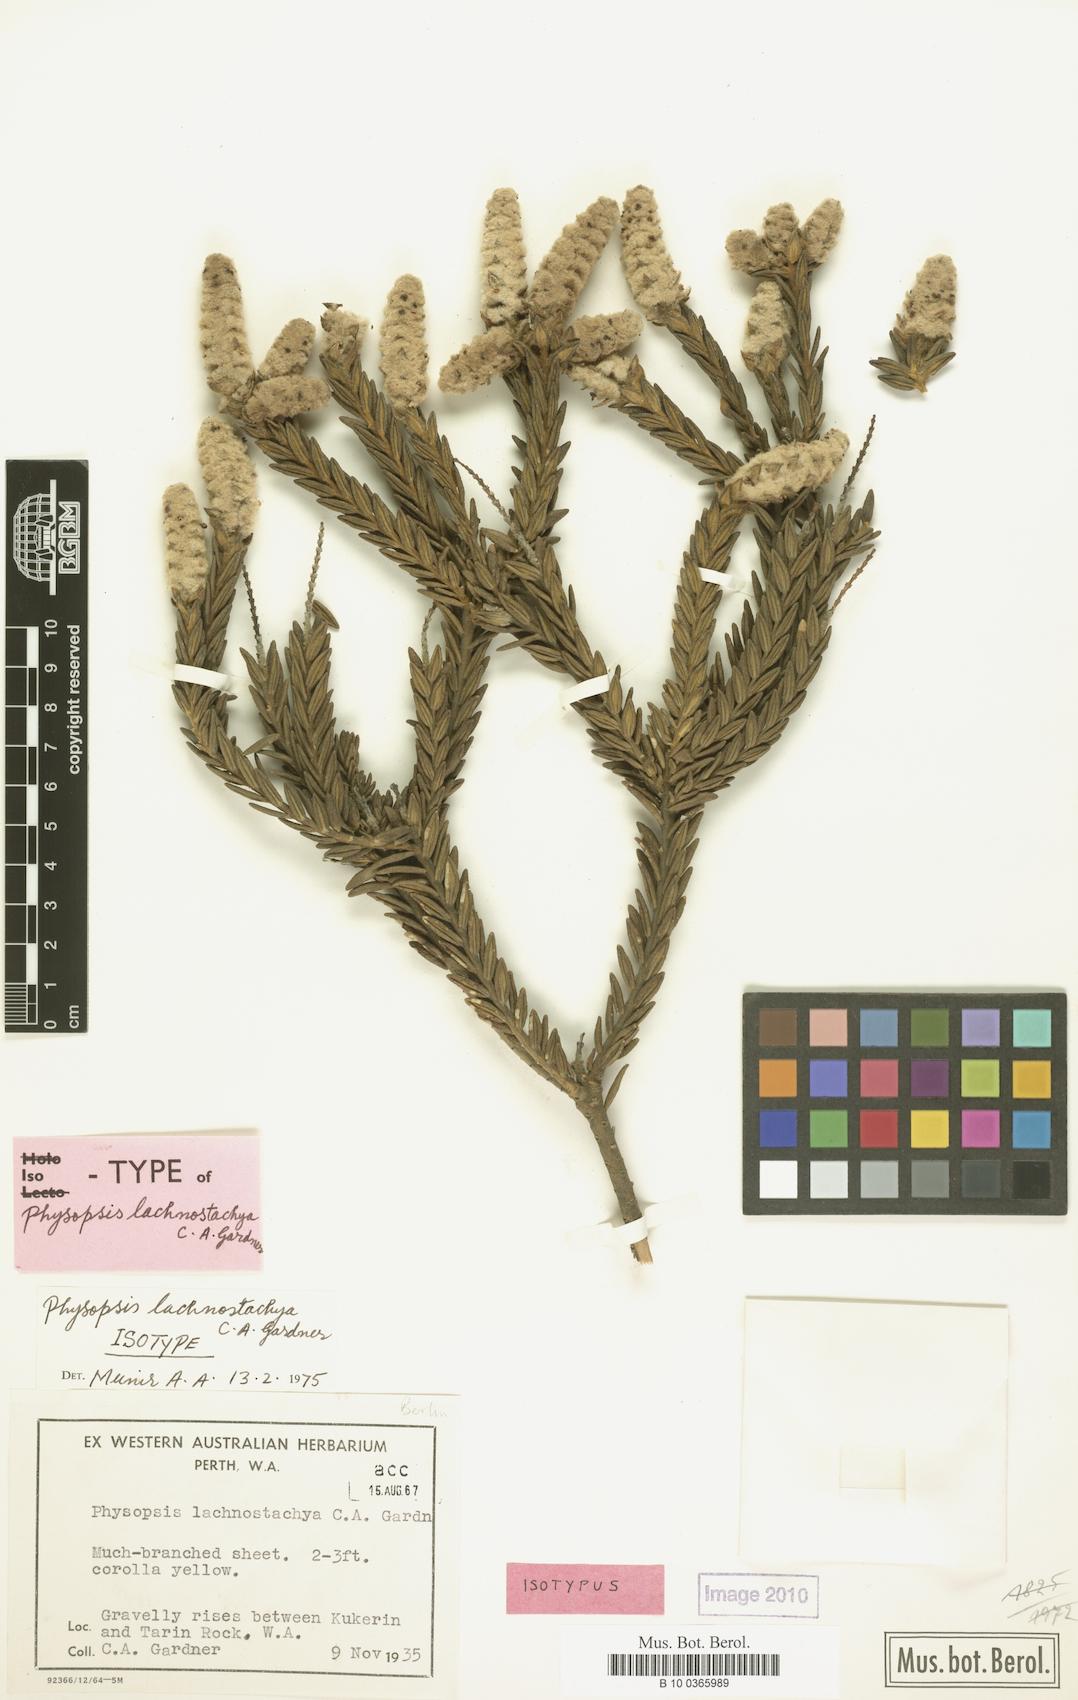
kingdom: Plantae
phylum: Tracheophyta
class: Magnoliopsida
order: Lamiales
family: Lamiaceae
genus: Apatelantha
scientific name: Apatelantha lachnostachya
